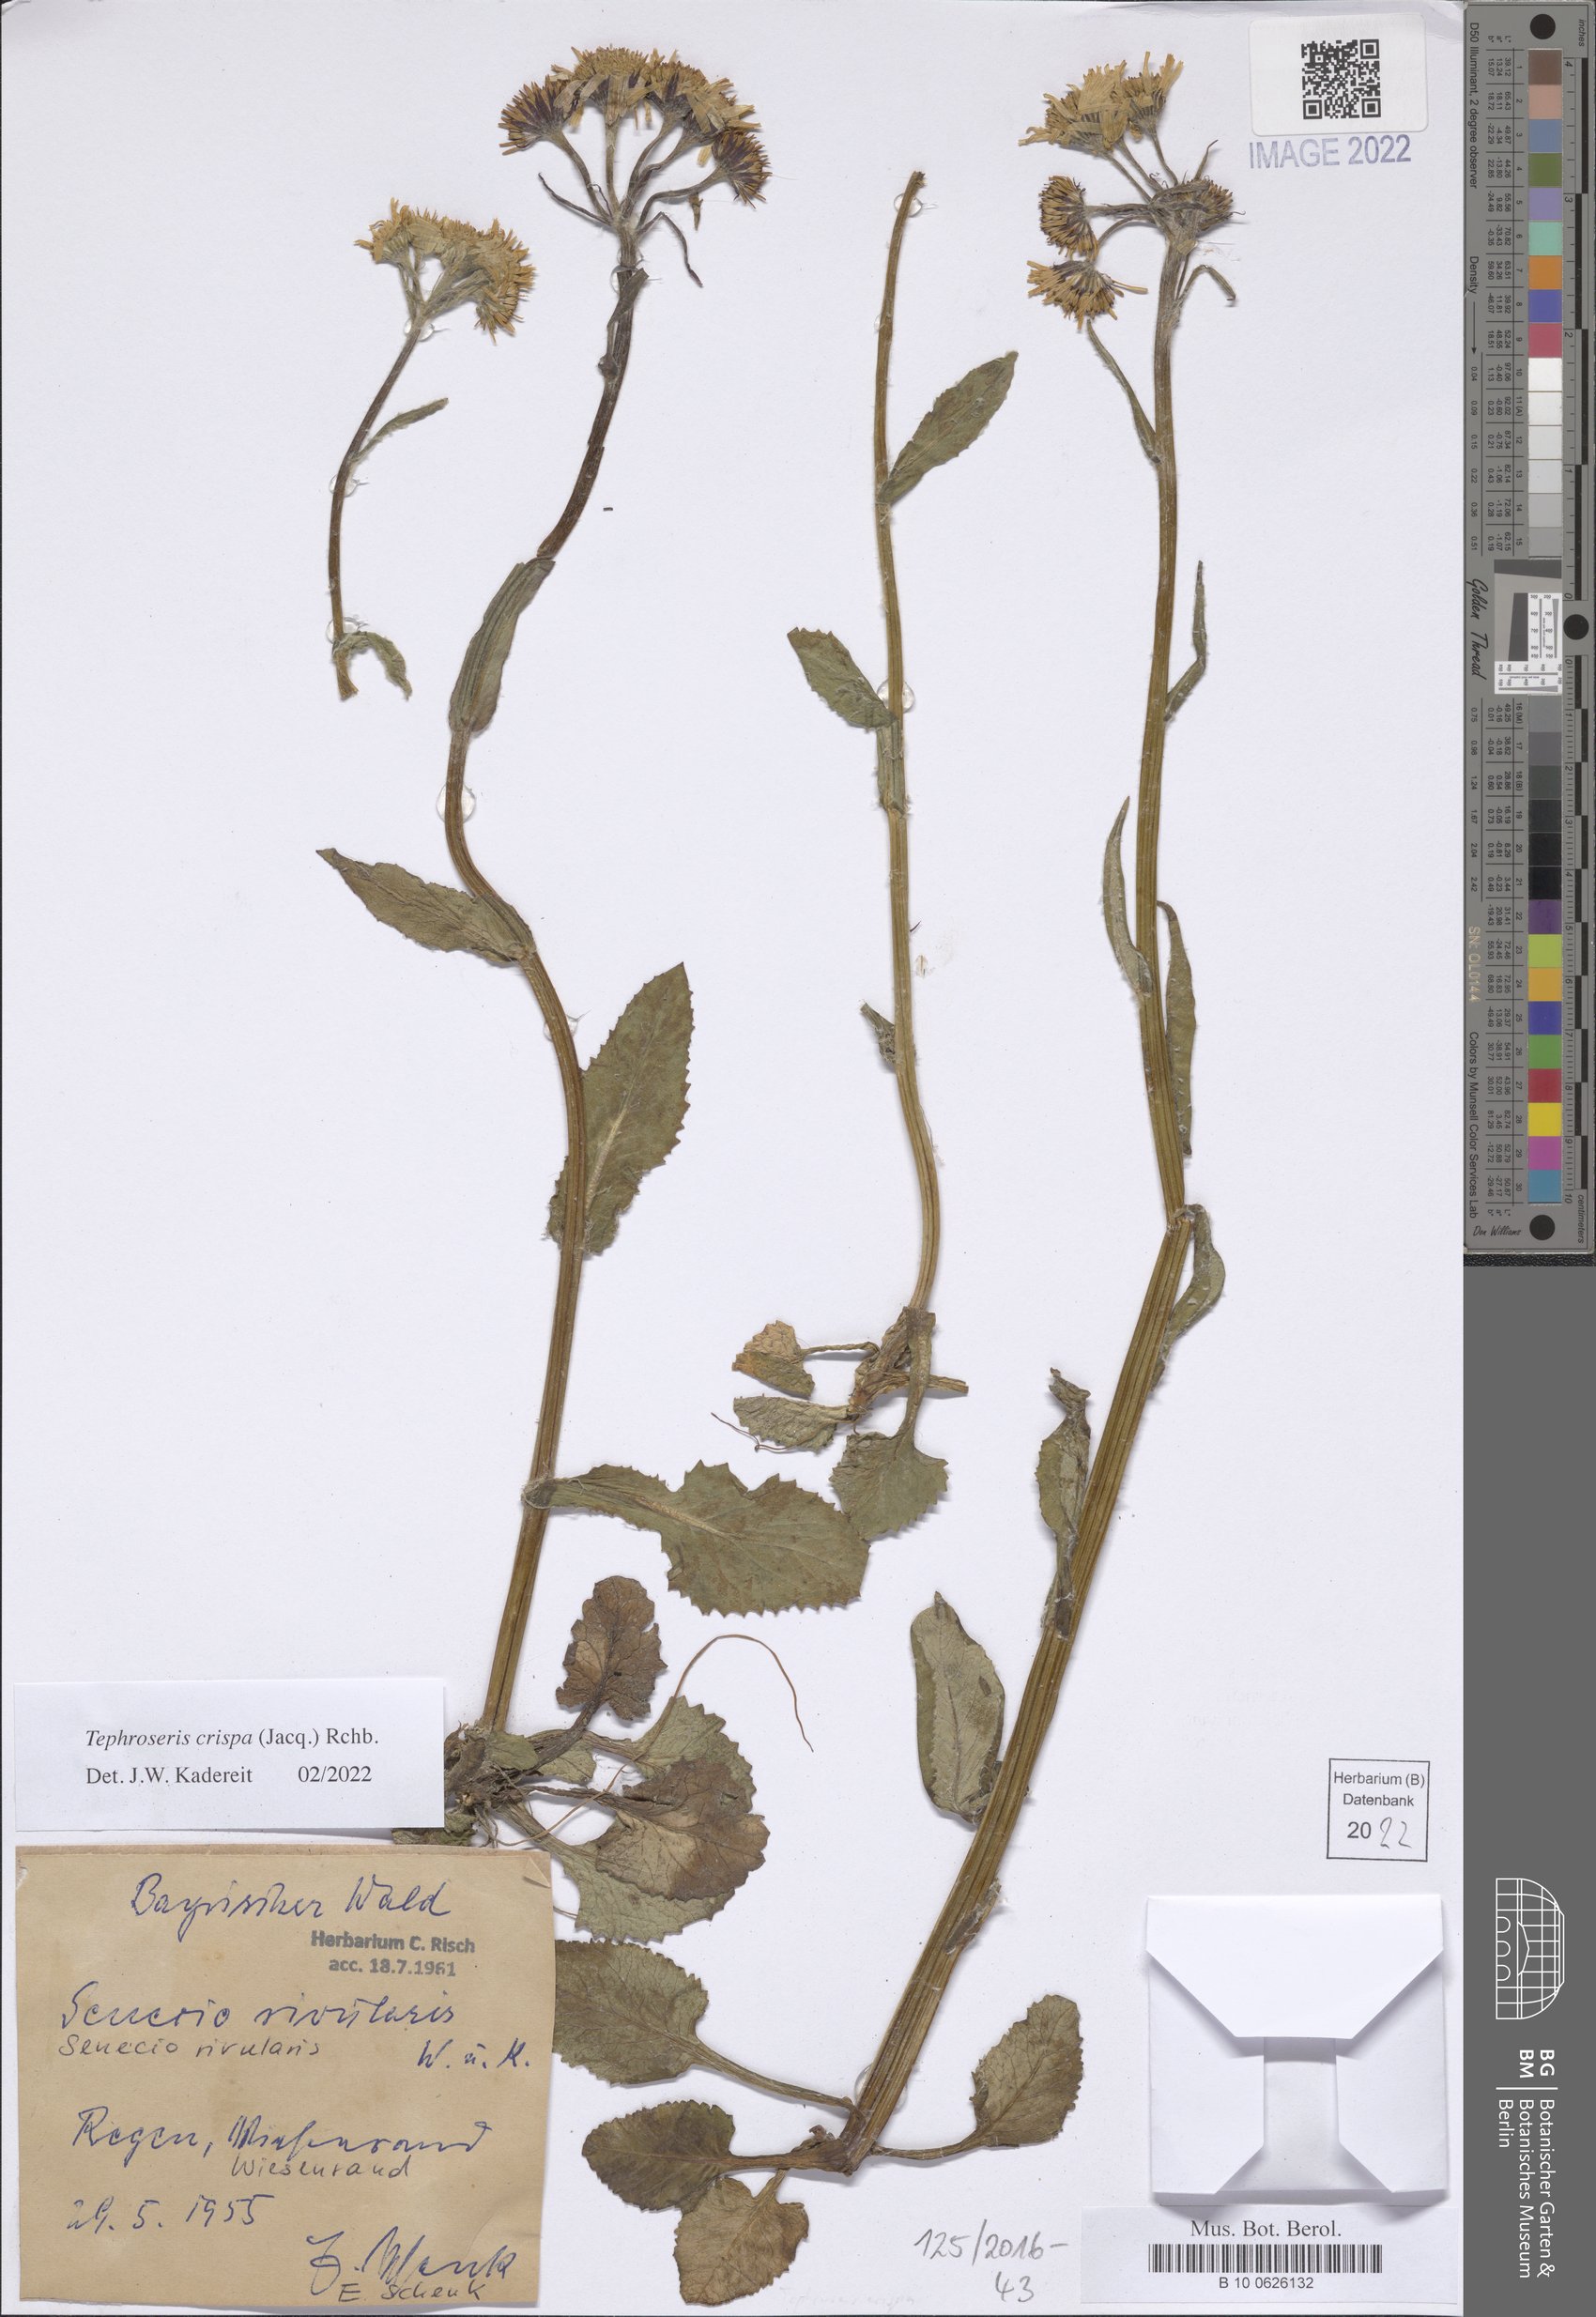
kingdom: Plantae
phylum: Tracheophyta
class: Magnoliopsida
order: Asterales
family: Asteraceae
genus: Tephroseris
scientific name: Tephroseris crispa
